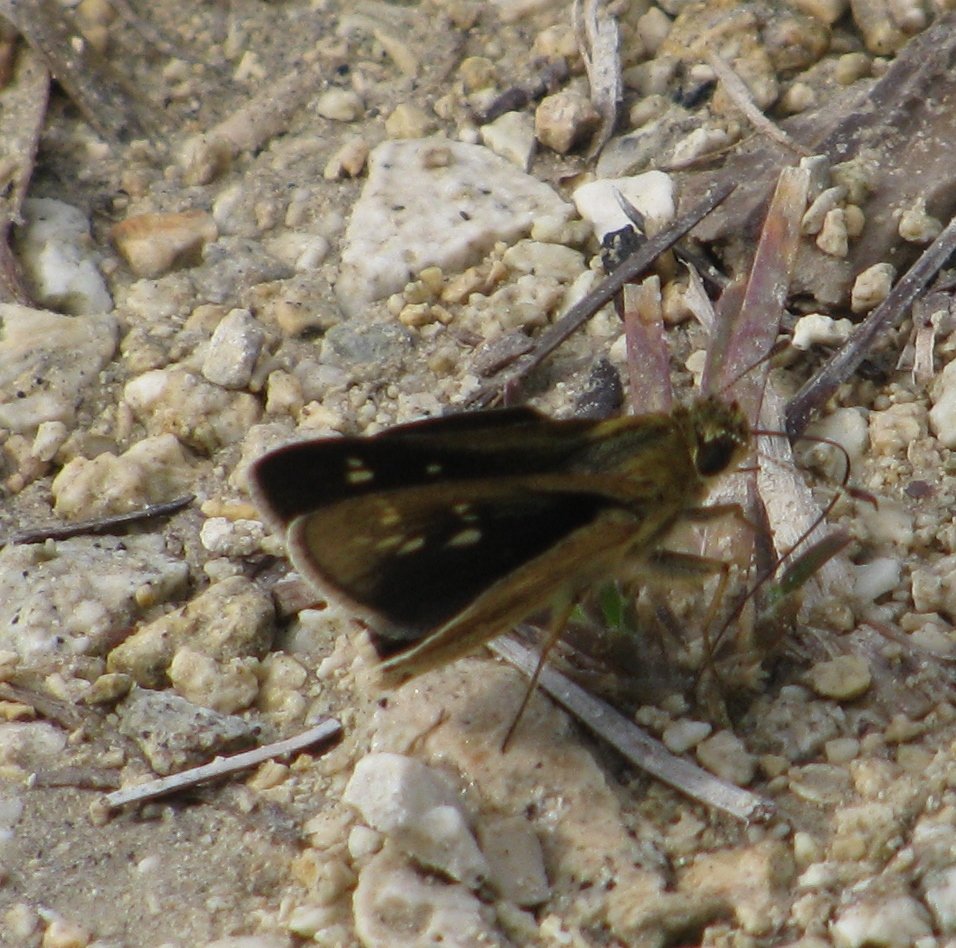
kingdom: Animalia
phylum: Arthropoda
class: Insecta
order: Lepidoptera
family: Hesperiidae
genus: Mastor
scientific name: Mastor carolina
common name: Reversed Roadside-skipper
